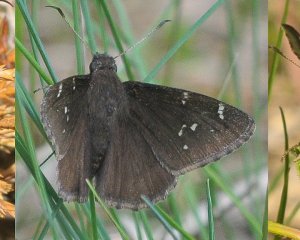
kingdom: Animalia
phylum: Arthropoda
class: Insecta
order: Lepidoptera
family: Hesperiidae
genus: Autochton
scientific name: Autochton
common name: Northern Cloudywing
